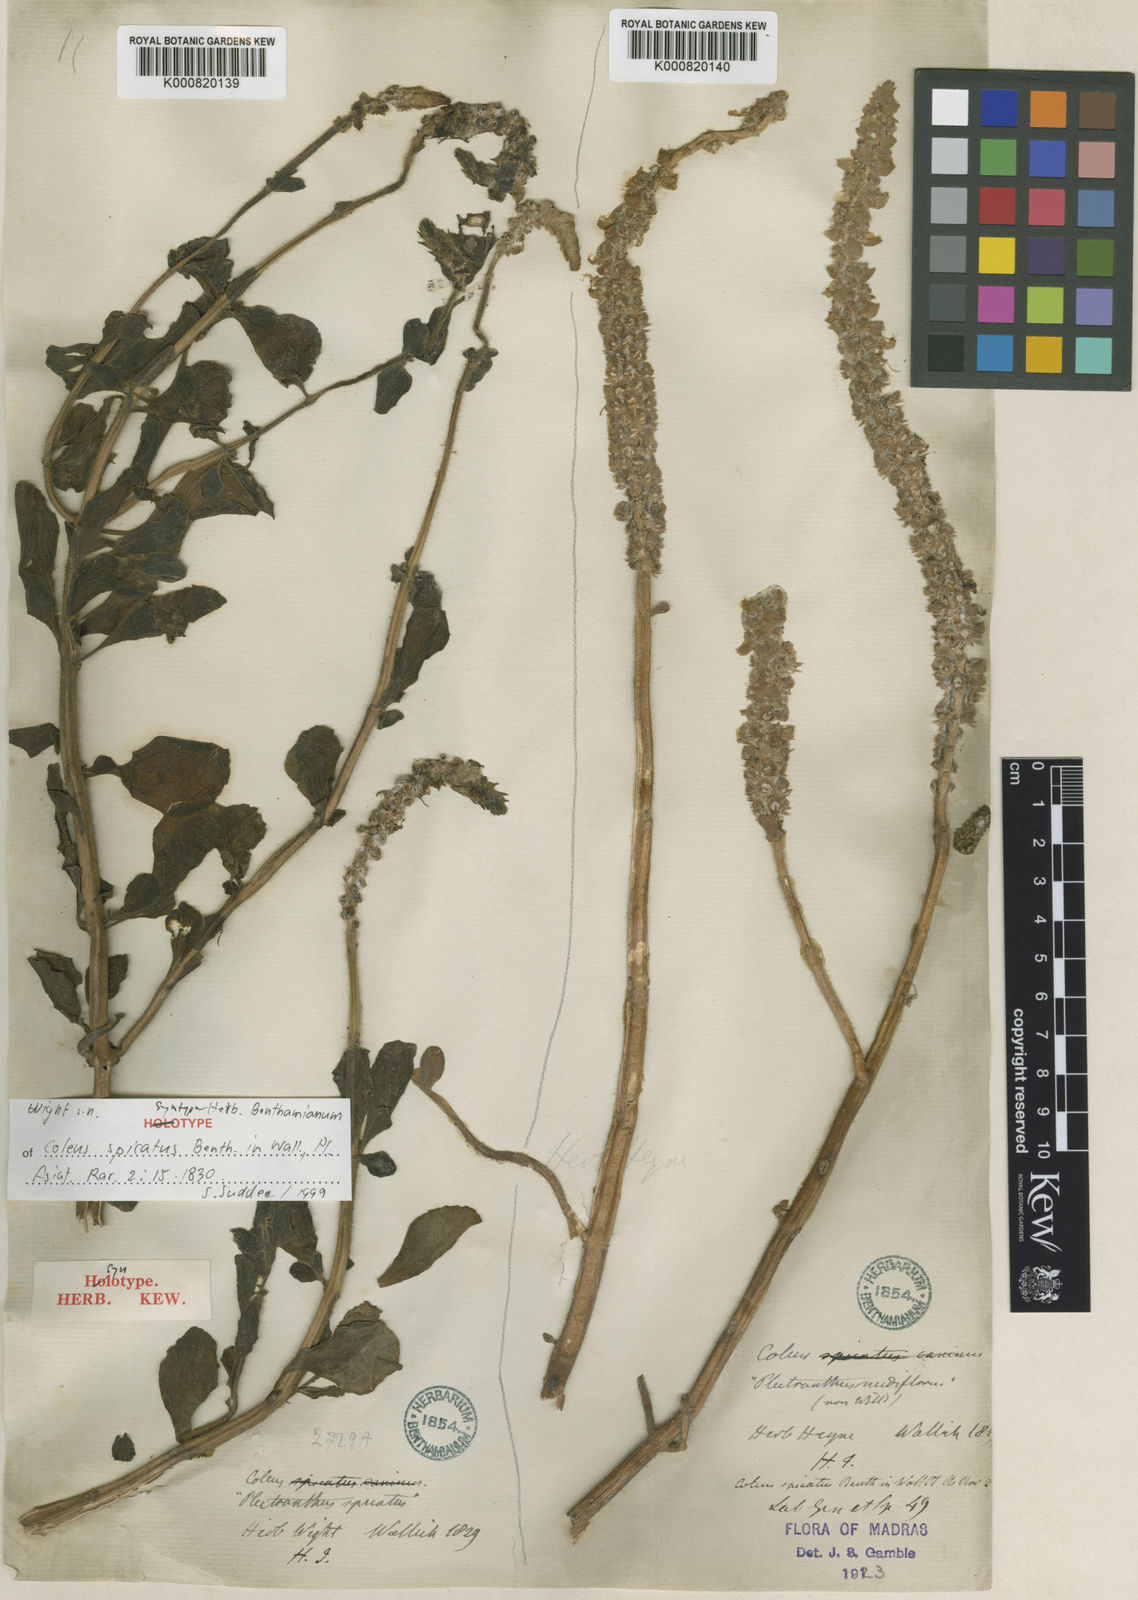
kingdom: Plantae
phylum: Tracheophyta
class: Magnoliopsida
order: Lamiales
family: Lamiaceae
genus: Coleus
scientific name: Coleus caninus
